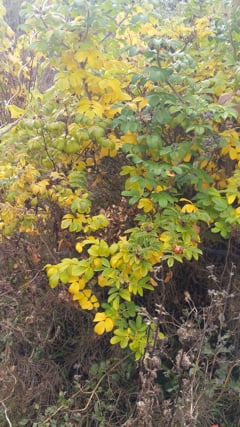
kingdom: Animalia
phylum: Arthropoda
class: Insecta
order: Orthoptera
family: Gryllidae
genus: Oecanthus
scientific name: Oecanthus pellucens
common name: Tree-cricket
